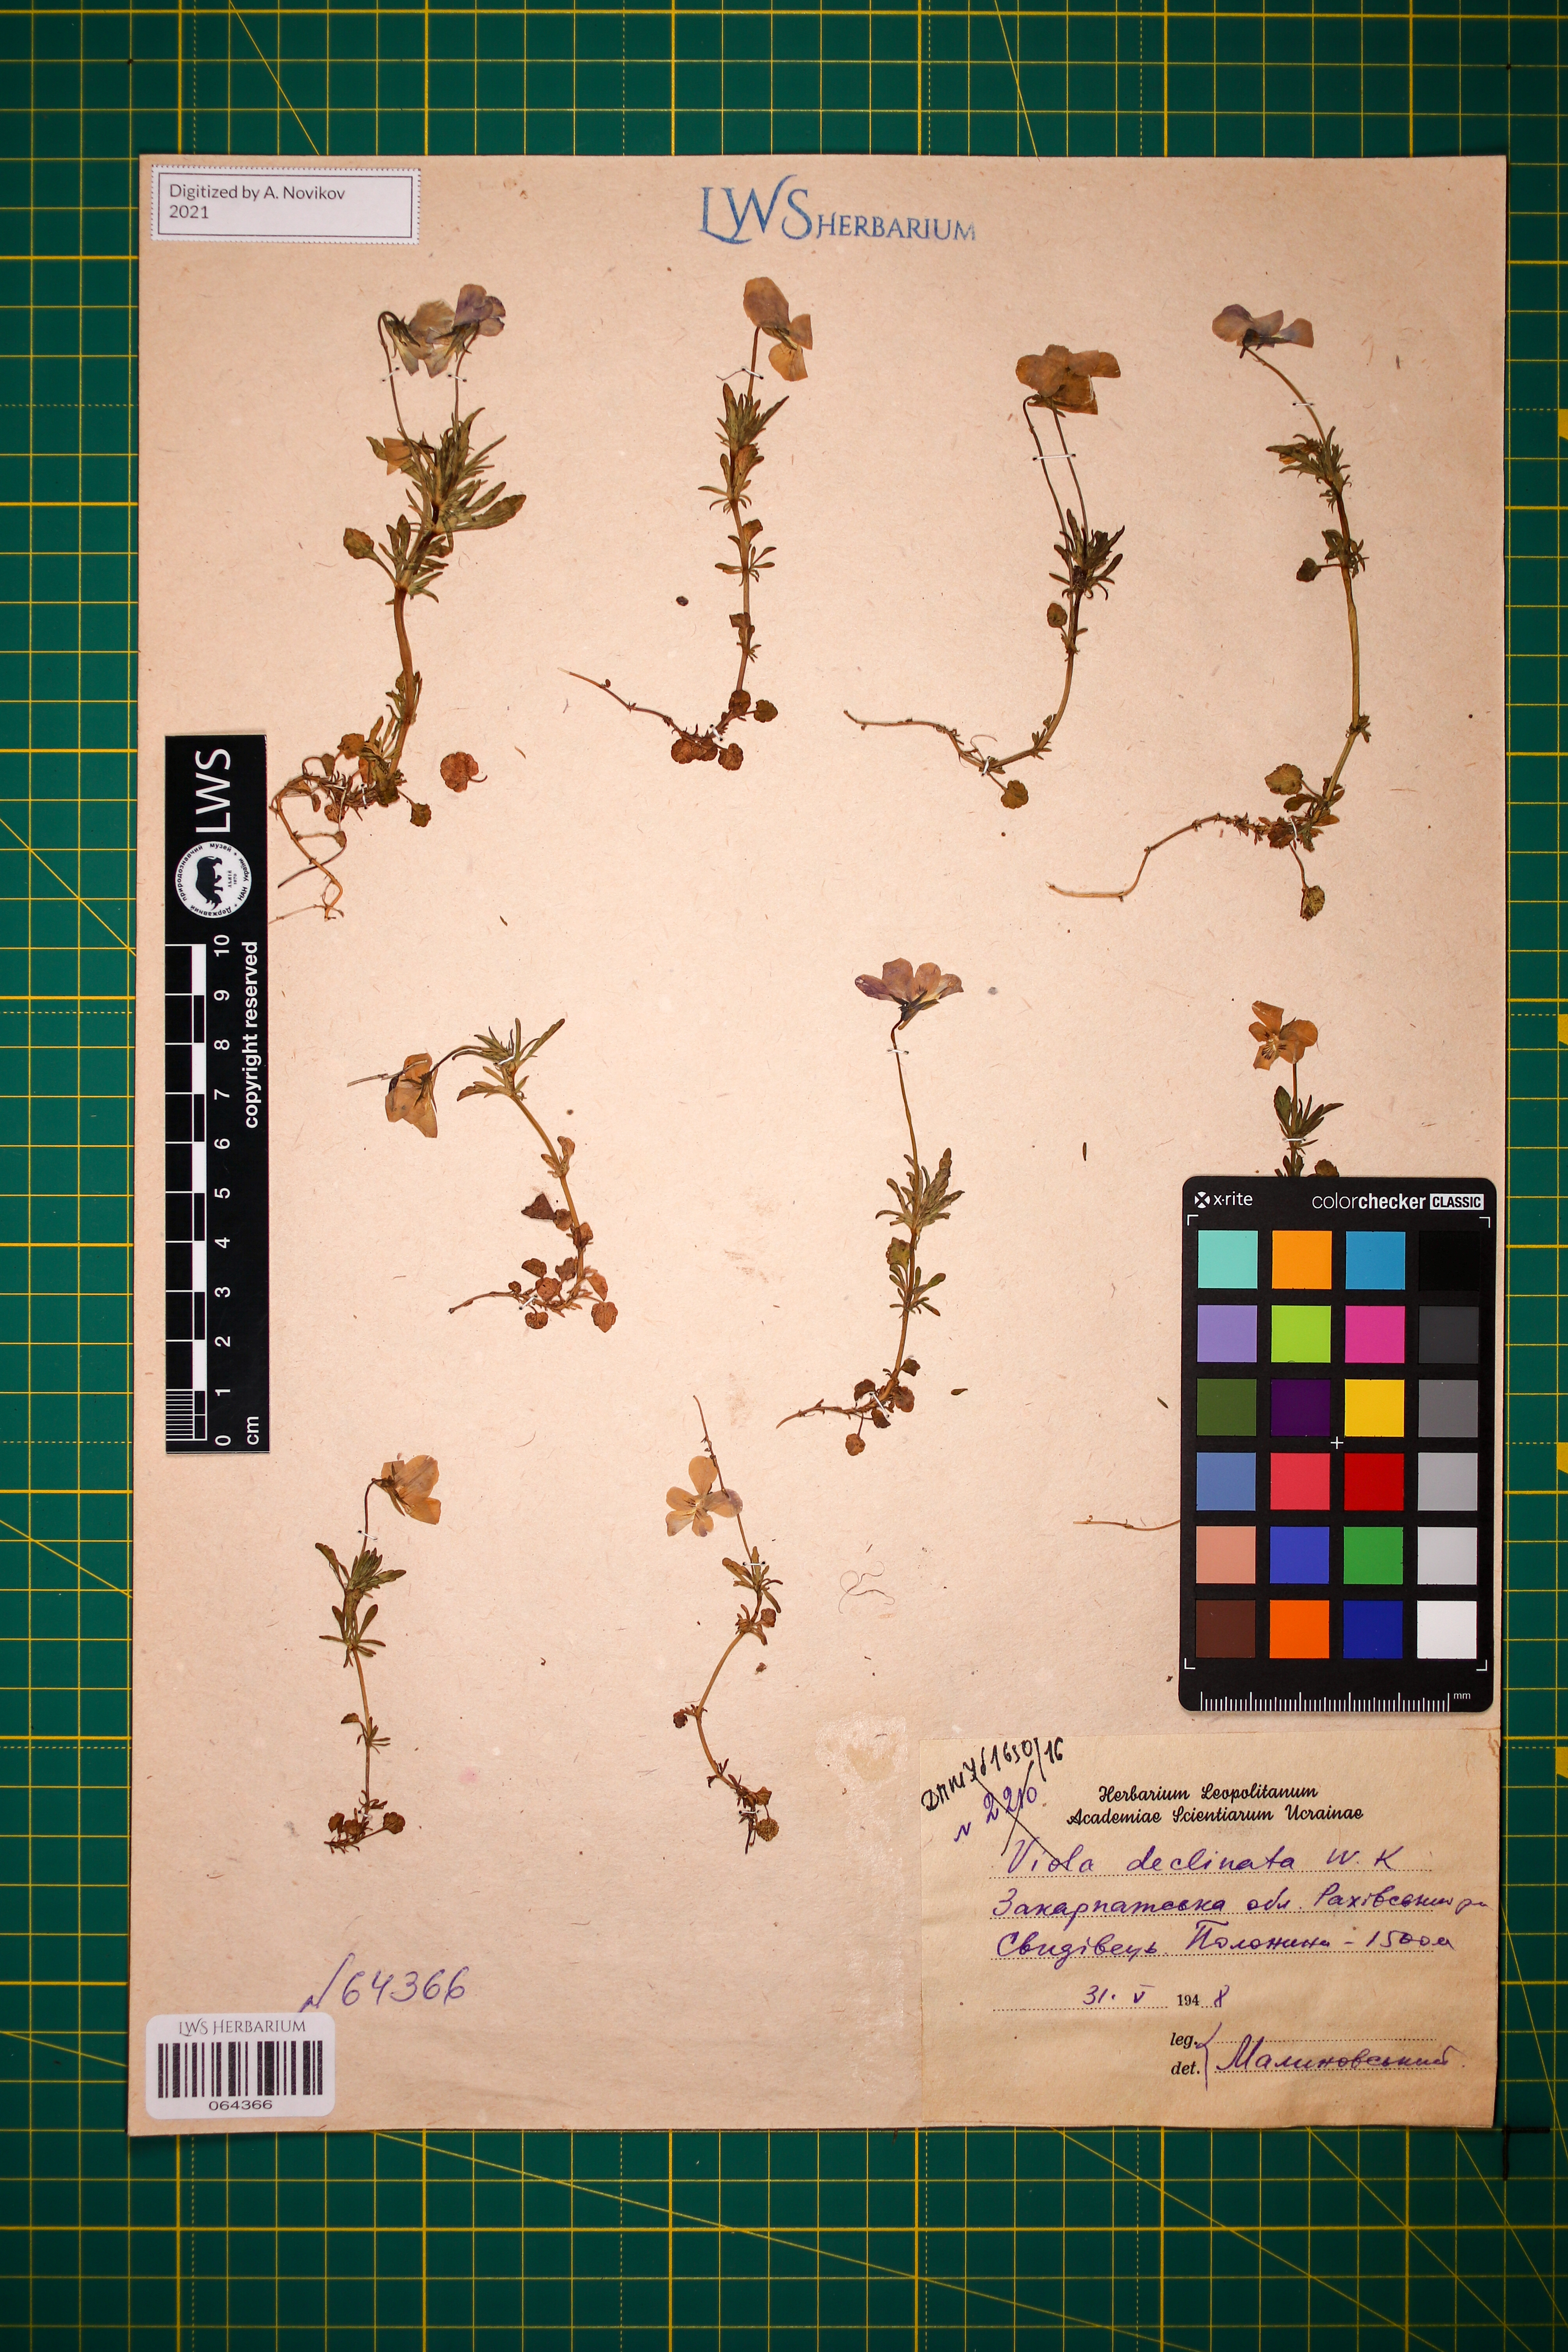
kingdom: Plantae
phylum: Tracheophyta
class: Magnoliopsida
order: Malpighiales
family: Violaceae
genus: Viola
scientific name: Viola declinata
